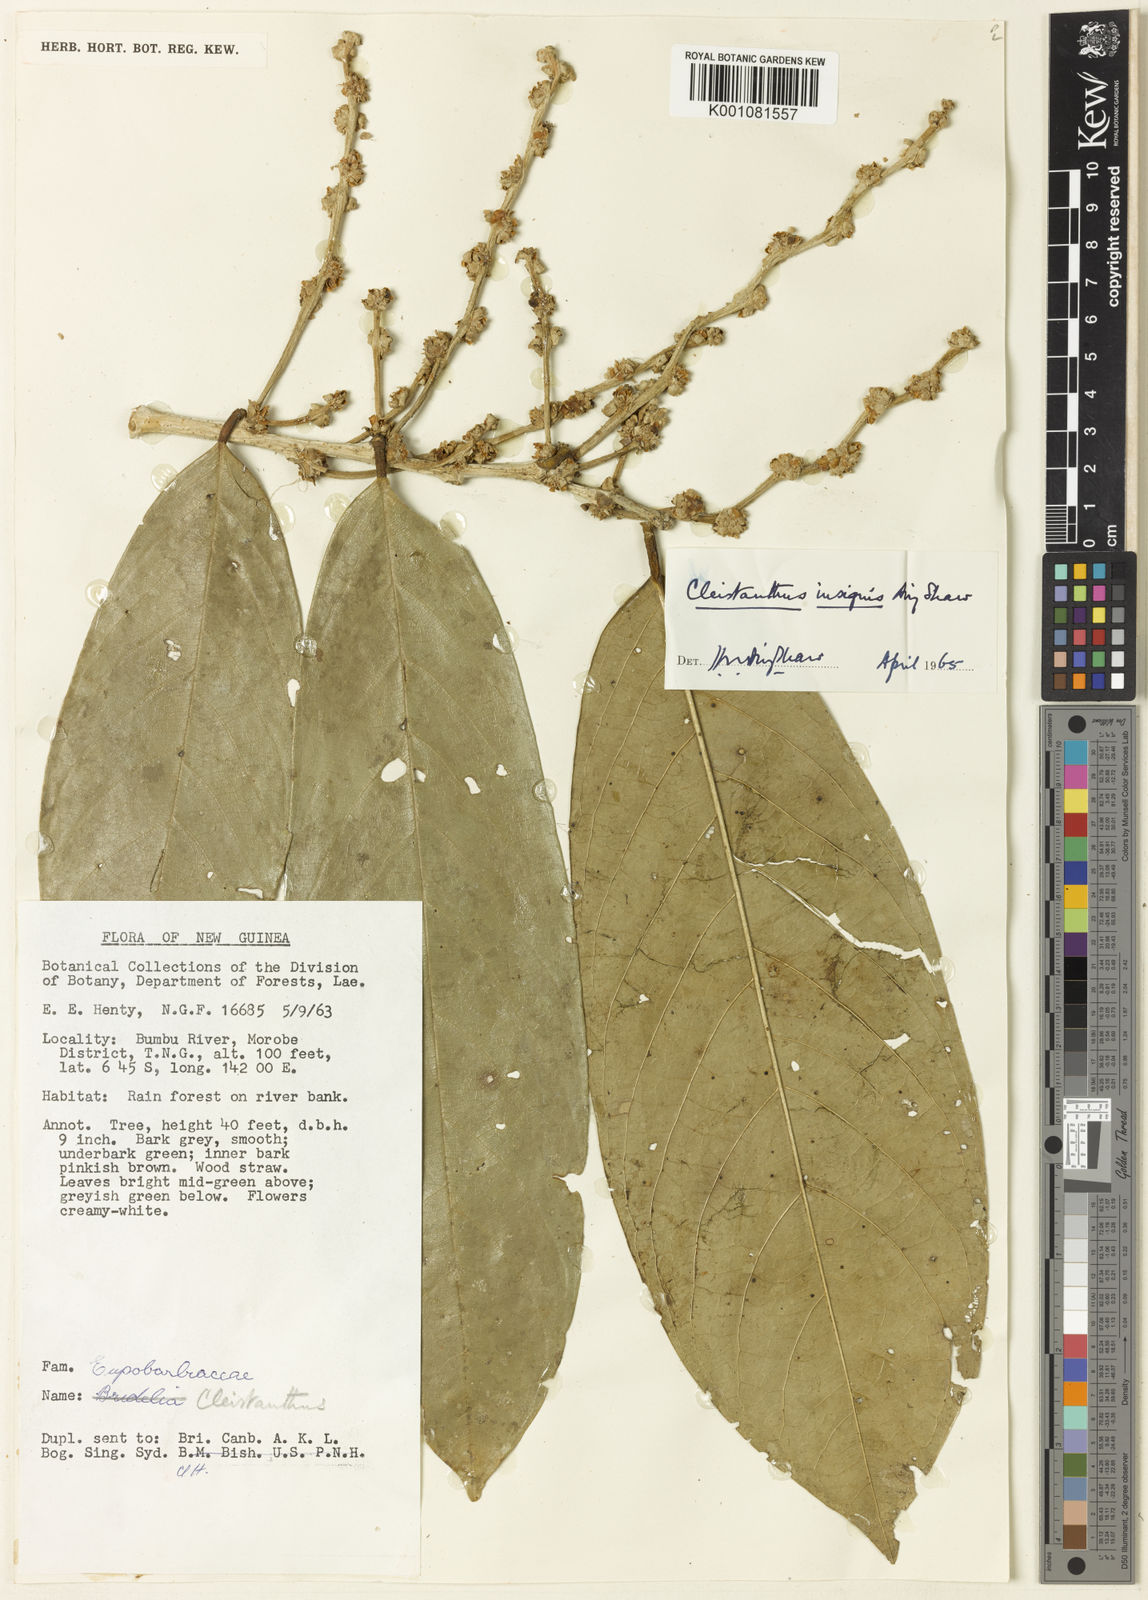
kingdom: Plantae
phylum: Tracheophyta
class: Magnoliopsida
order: Malpighiales
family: Phyllanthaceae
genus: Cleistanthus
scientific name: Cleistanthus insignis
